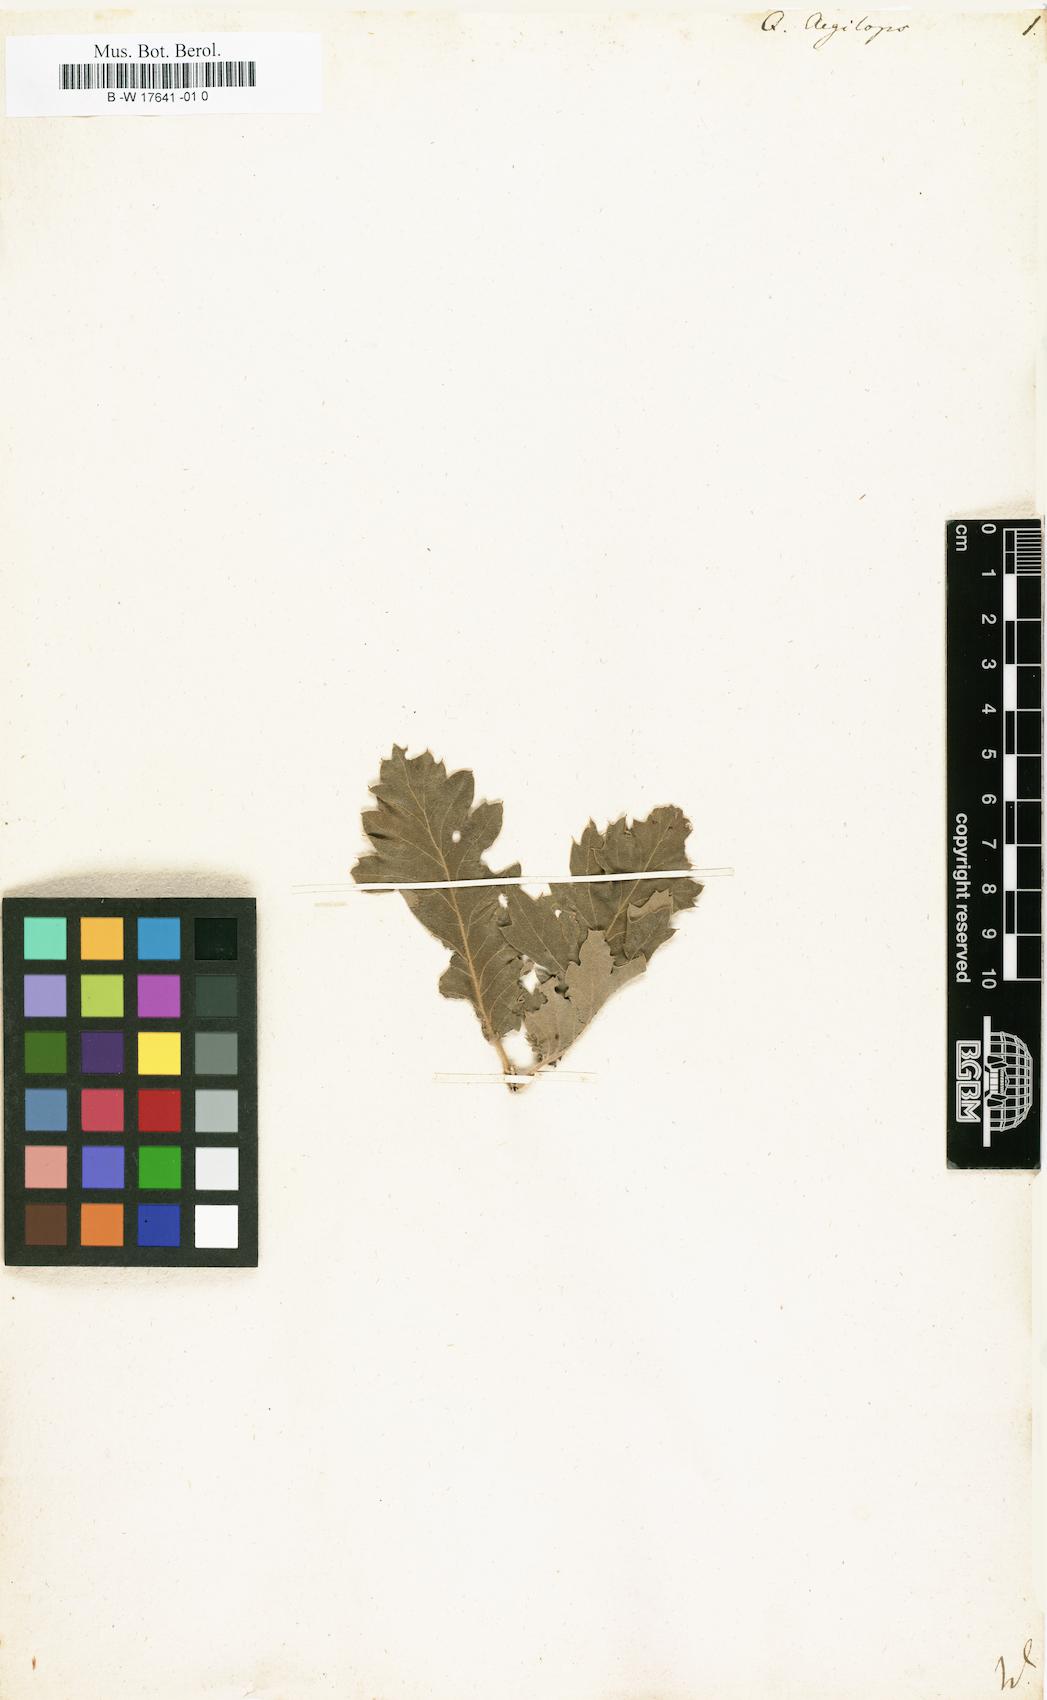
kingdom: Plantae
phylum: Tracheophyta
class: Magnoliopsida
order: Fagales
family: Fagaceae
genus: Quercus
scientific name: Quercus
